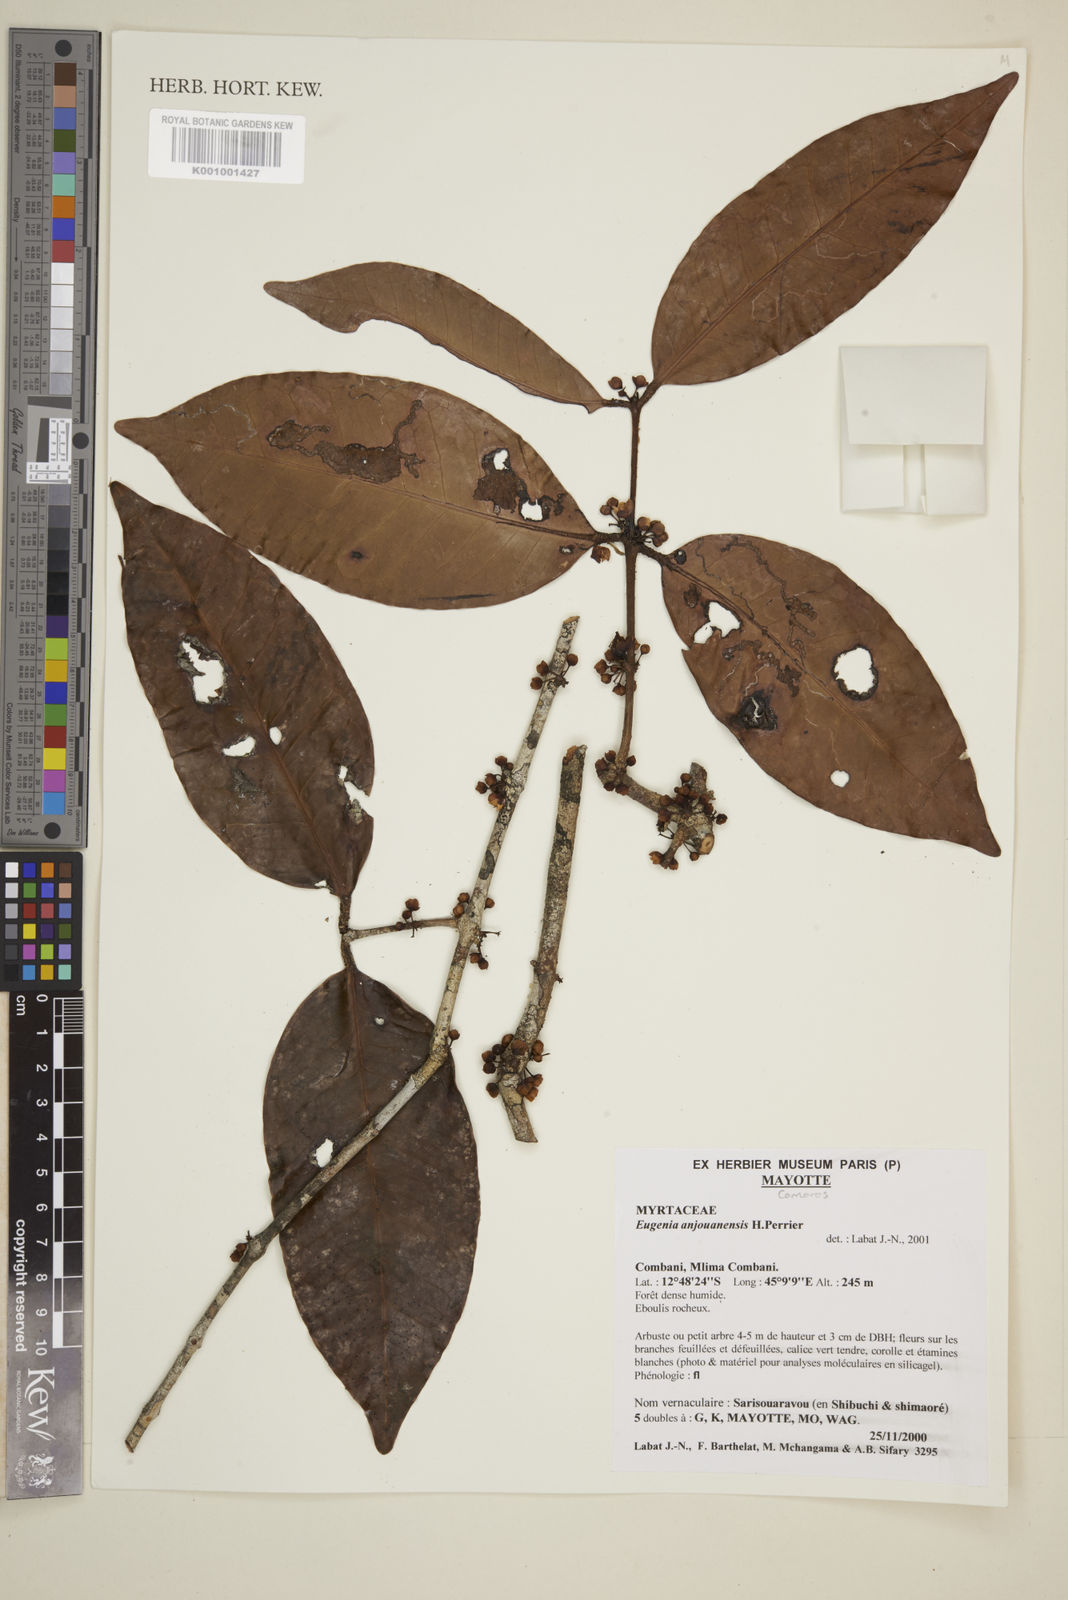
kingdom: Plantae
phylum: Tracheophyta
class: Magnoliopsida
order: Myrtales
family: Myrtaceae
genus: Eugenia
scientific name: Eugenia comorensis
